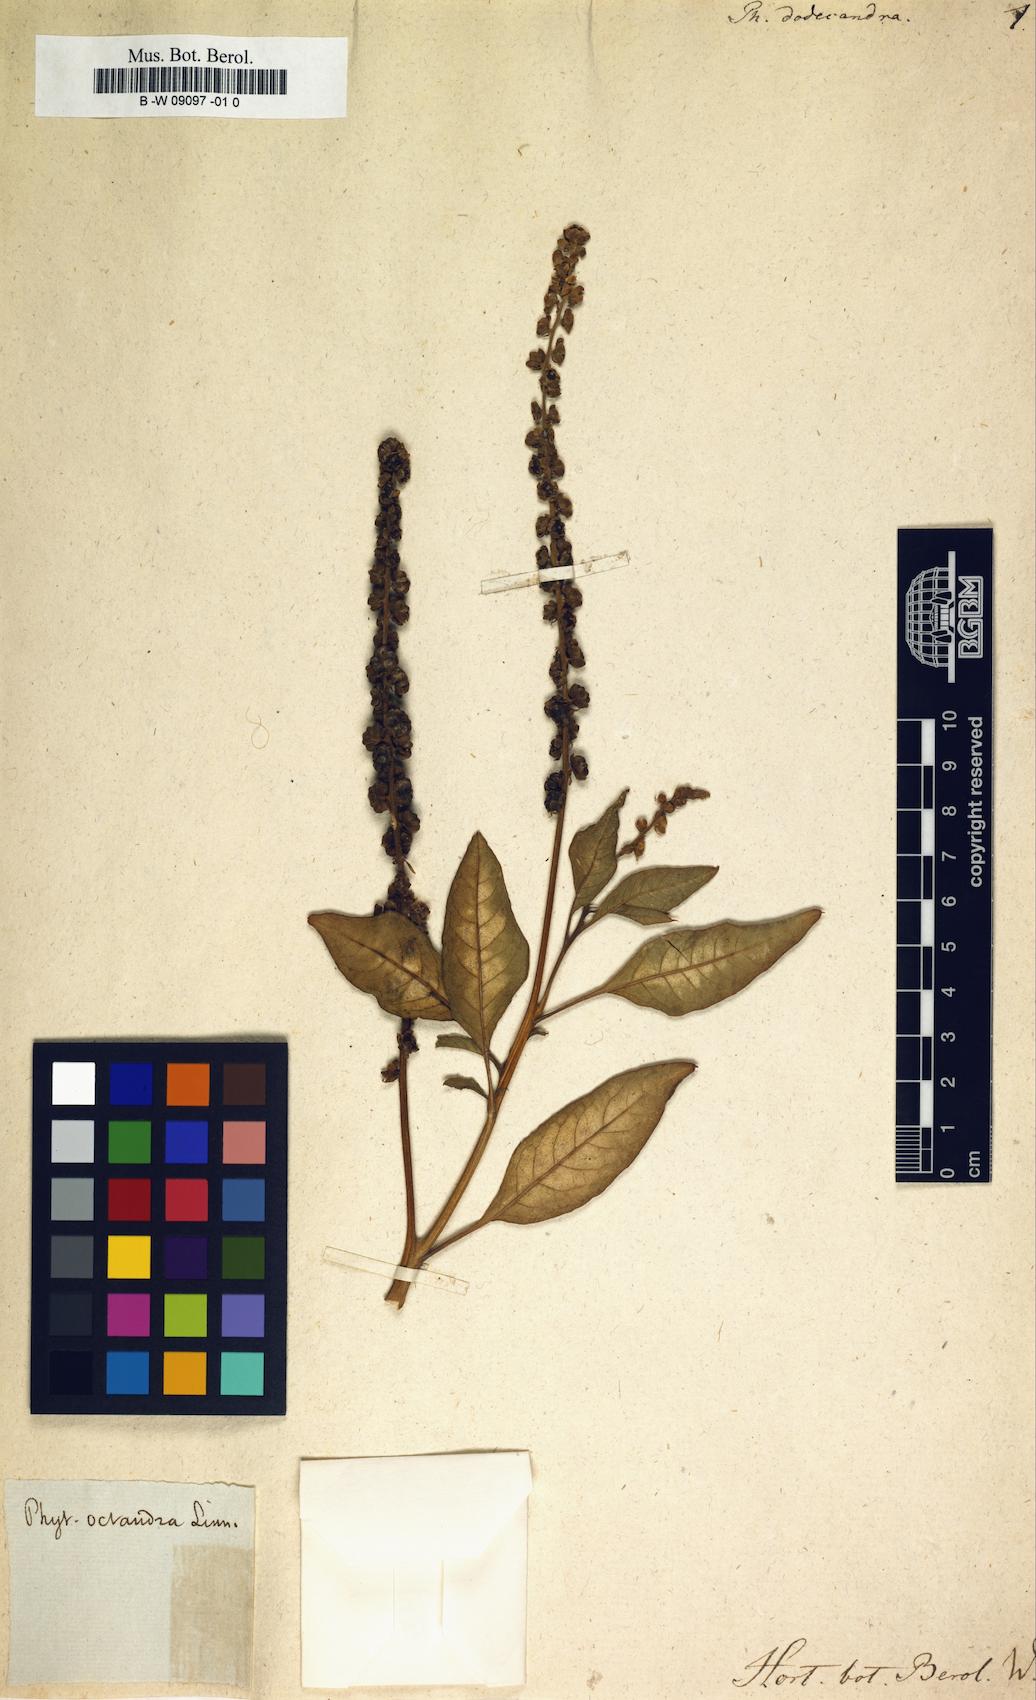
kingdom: Plantae
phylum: Tracheophyta
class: Magnoliopsida
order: Caryophyllales
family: Phytolaccaceae
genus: Phytolacca
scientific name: Phytolacca dodecandra
